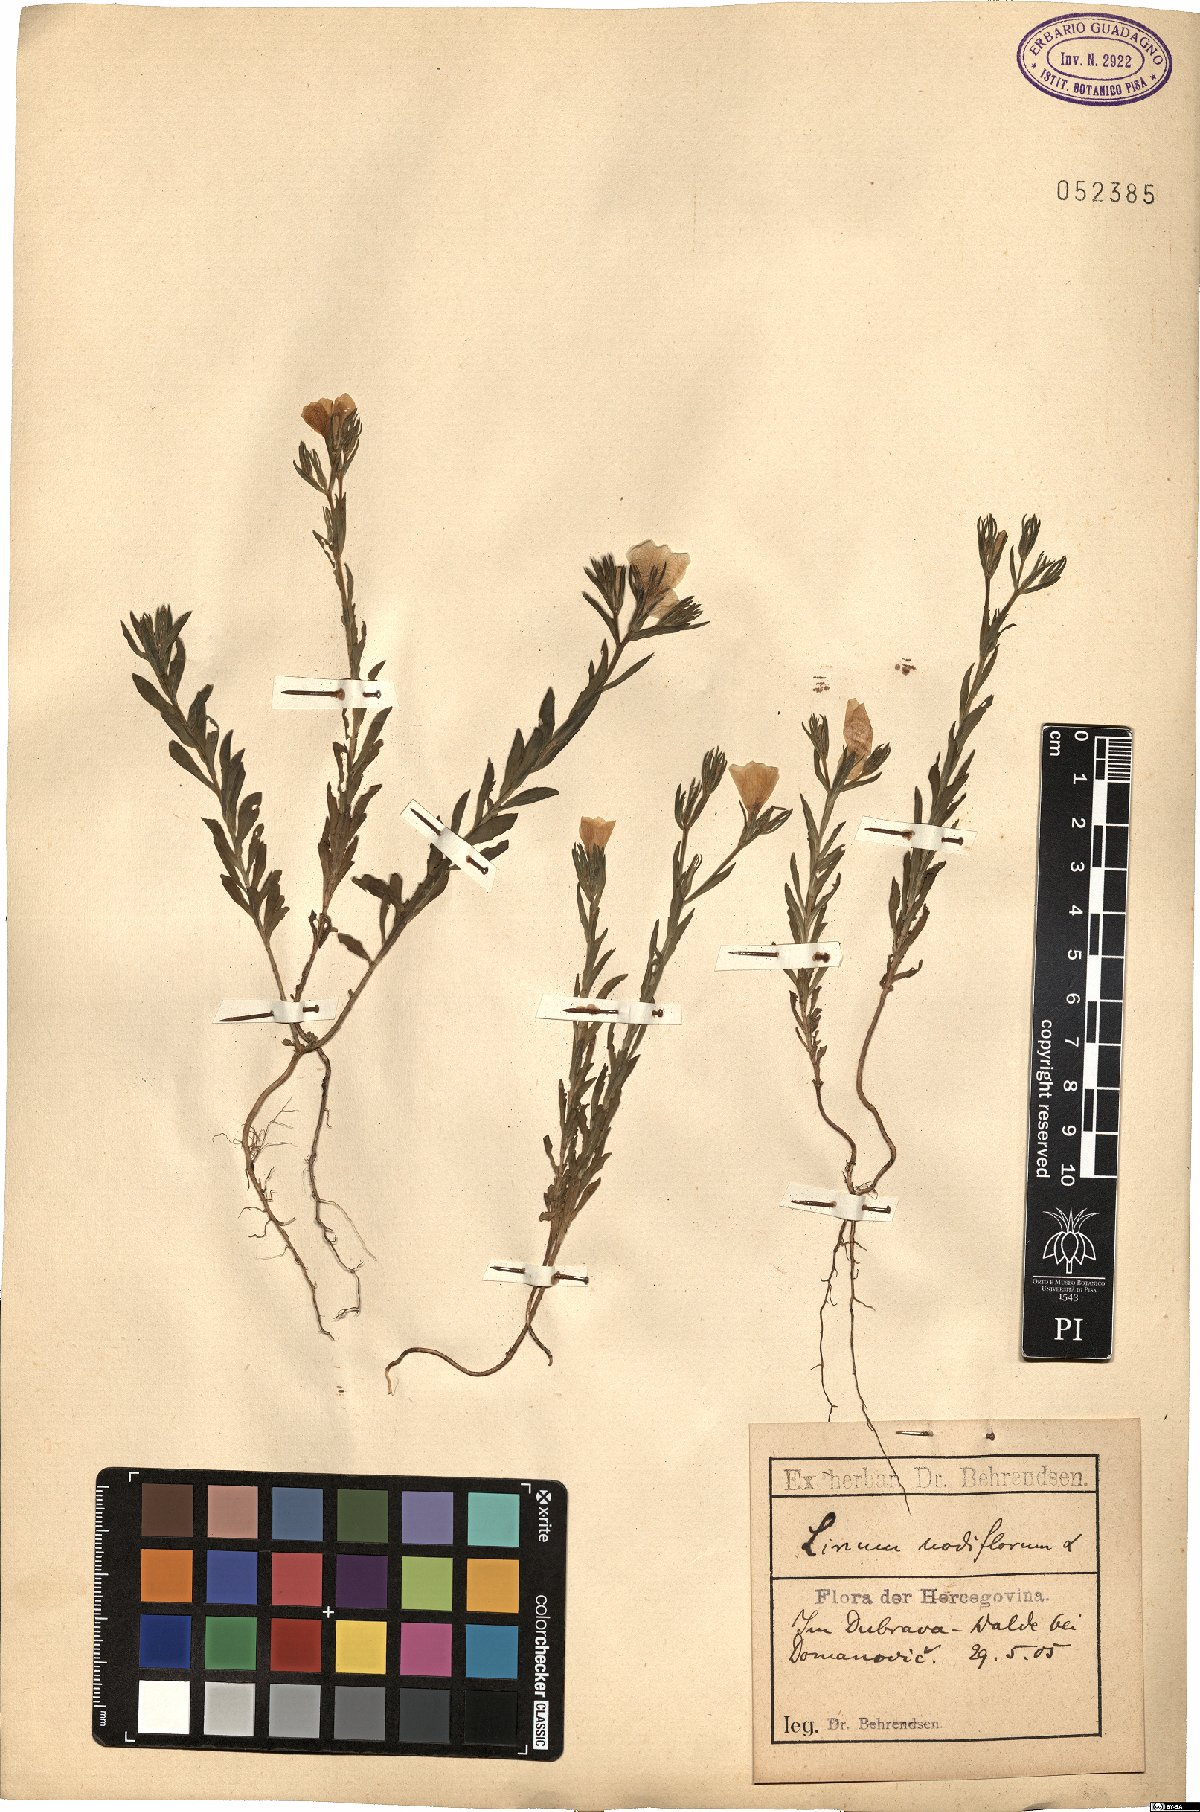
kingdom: Plantae
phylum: Tracheophyta
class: Magnoliopsida
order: Malpighiales
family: Linaceae
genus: Linum
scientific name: Linum nodiflorum
